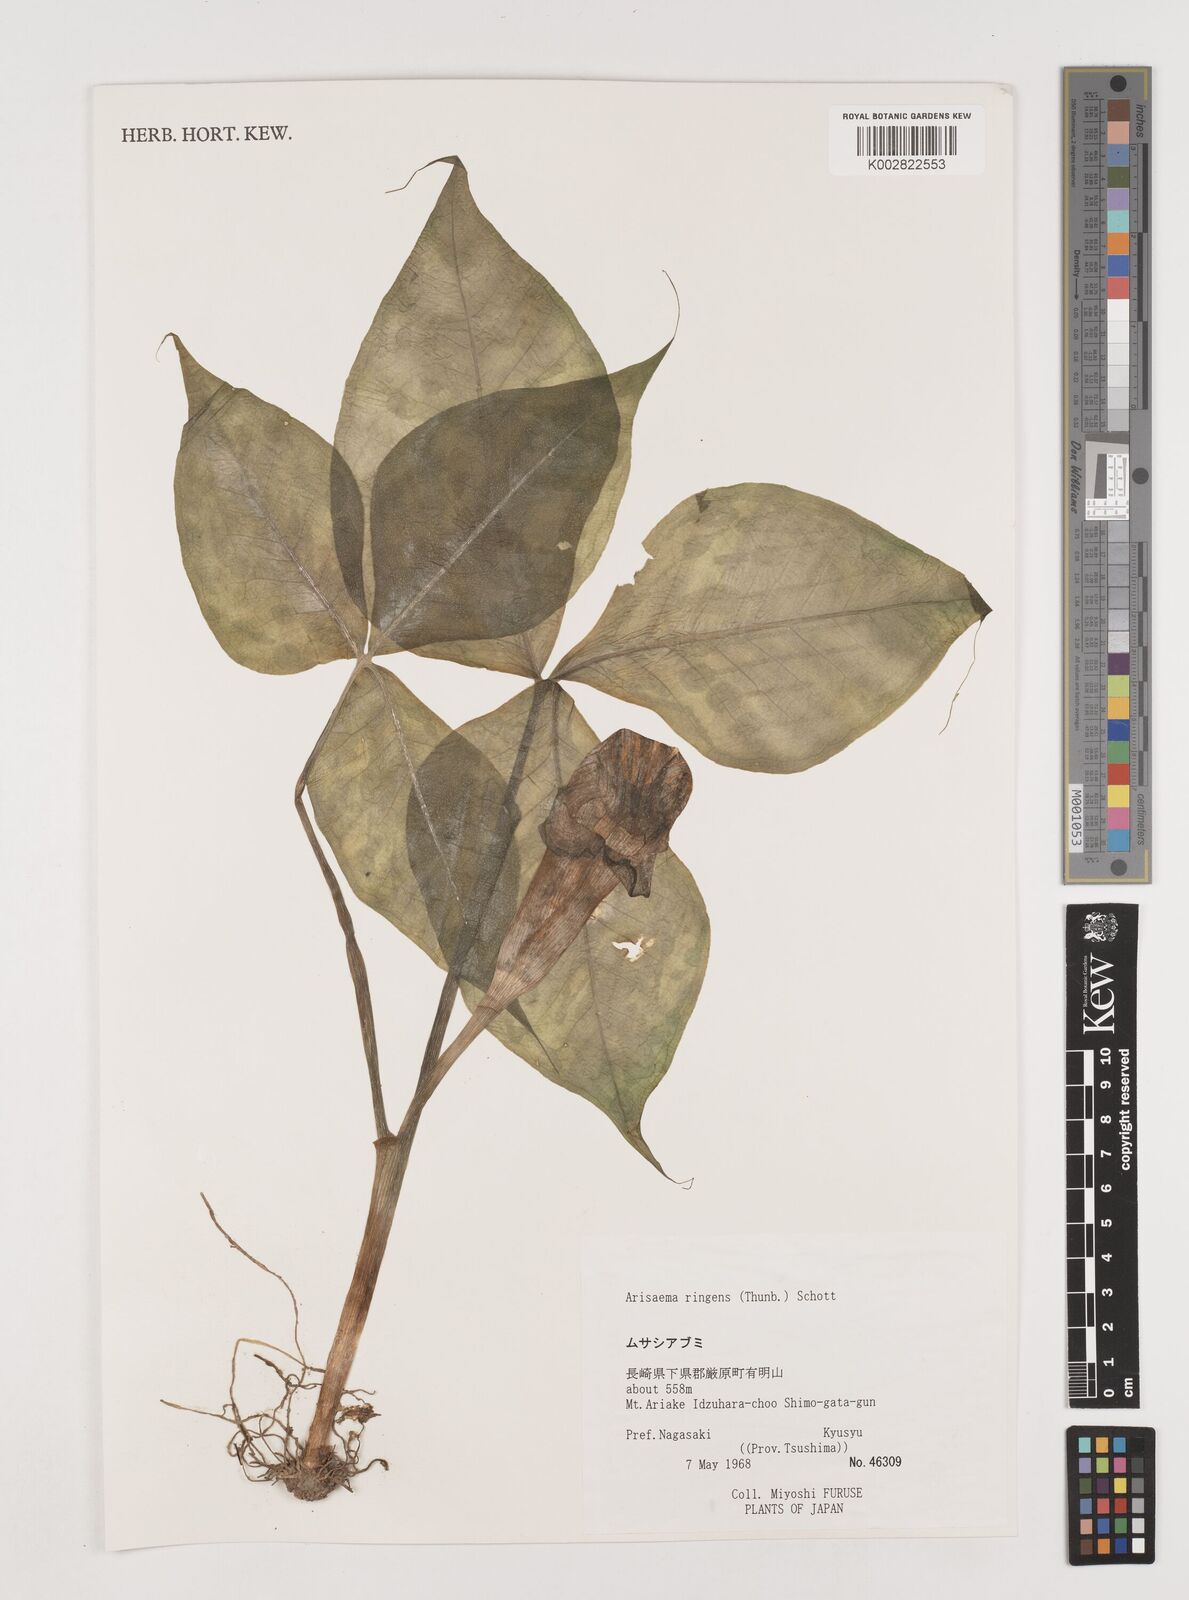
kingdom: Plantae
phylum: Tracheophyta
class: Liliopsida
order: Alismatales
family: Araceae
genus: Arisaema
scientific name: Arisaema ringens
